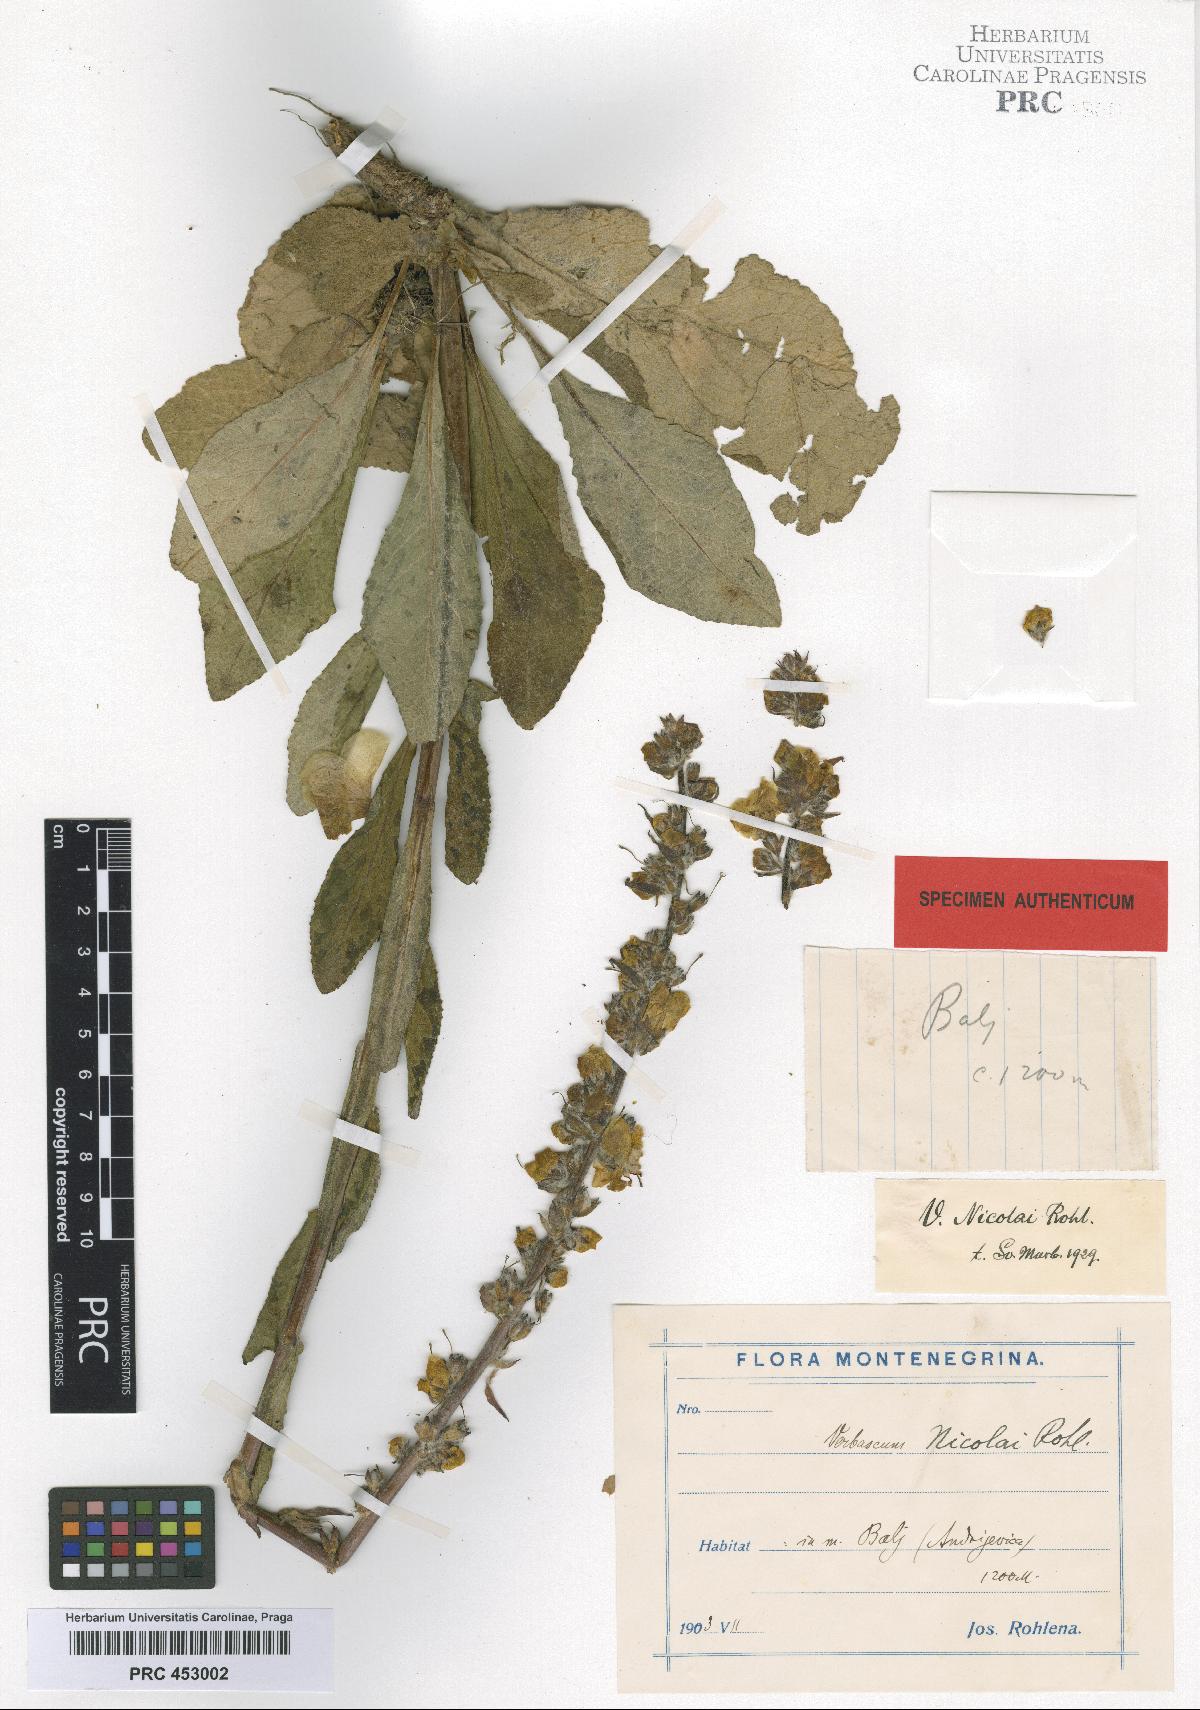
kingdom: Plantae
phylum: Tracheophyta
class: Magnoliopsida
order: Lamiales
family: Scrophulariaceae
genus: Verbascum
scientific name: Verbascum nicolai
